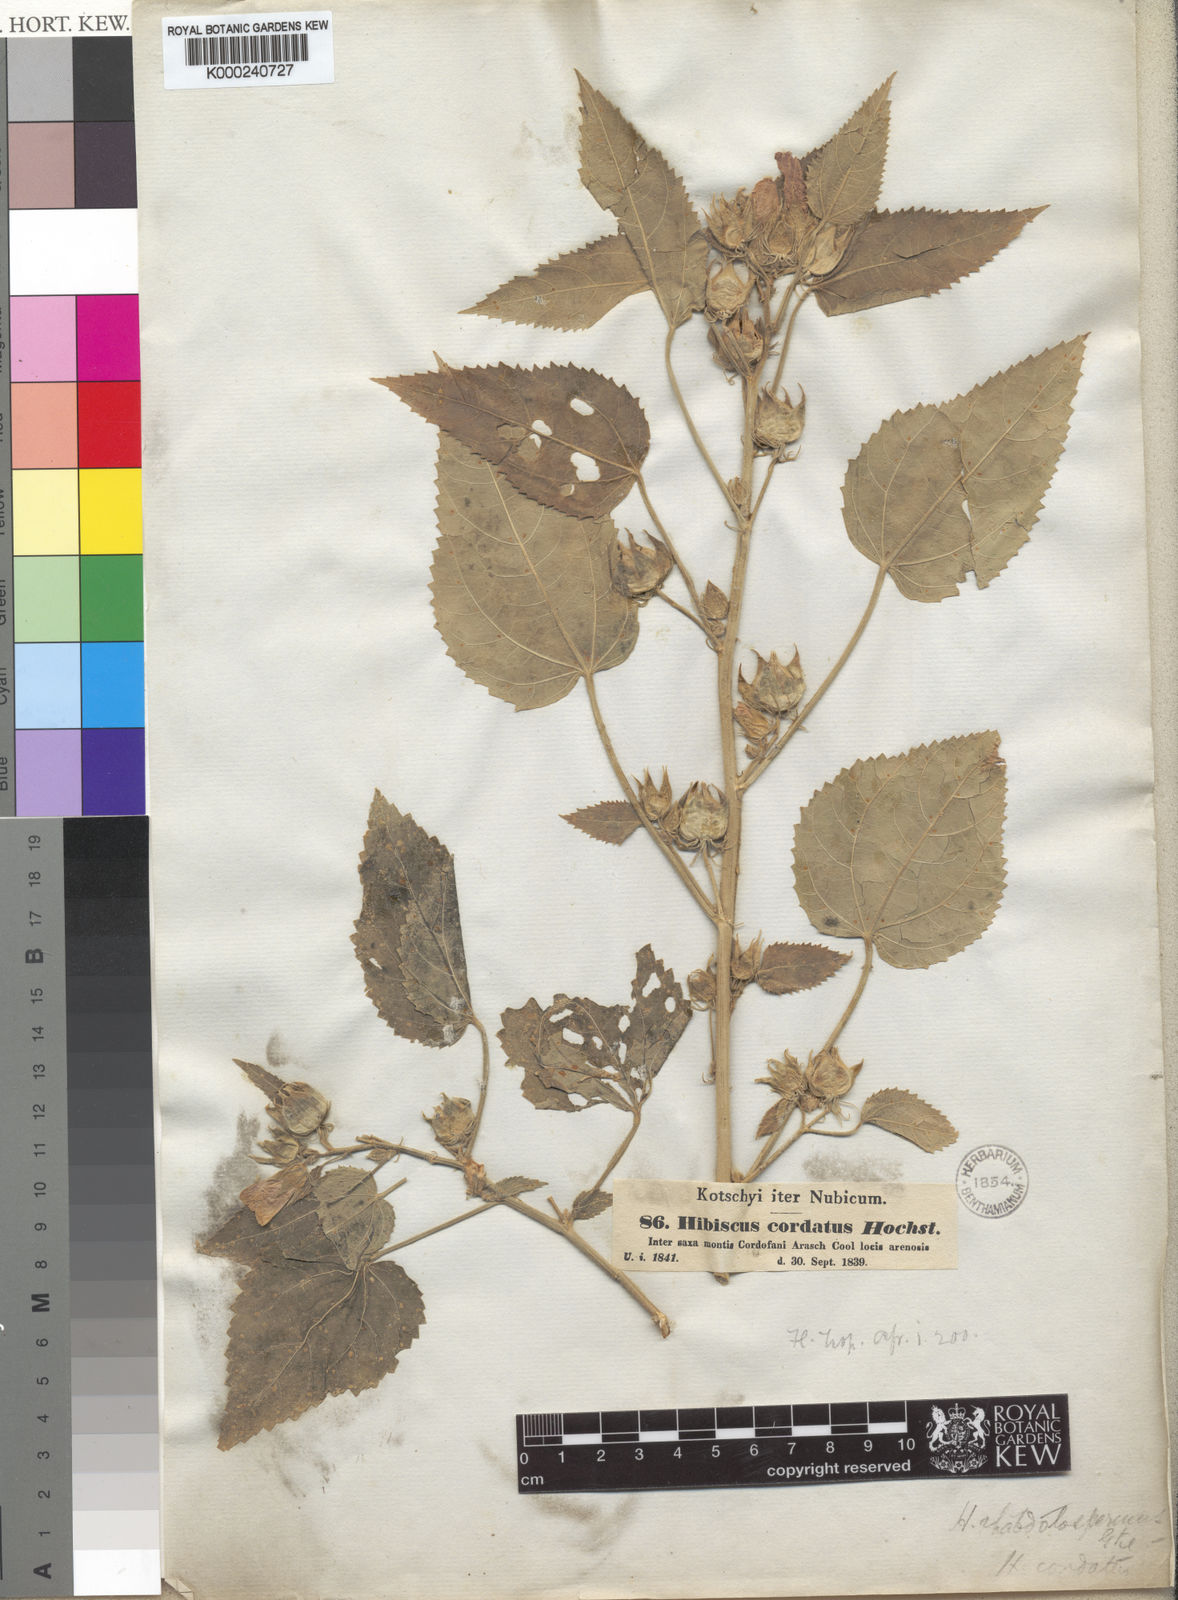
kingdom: Plantae
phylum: Tracheophyta
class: Magnoliopsida
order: Malvales
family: Malvaceae
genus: Hibiscus
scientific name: Hibiscus rhabdotospermus
